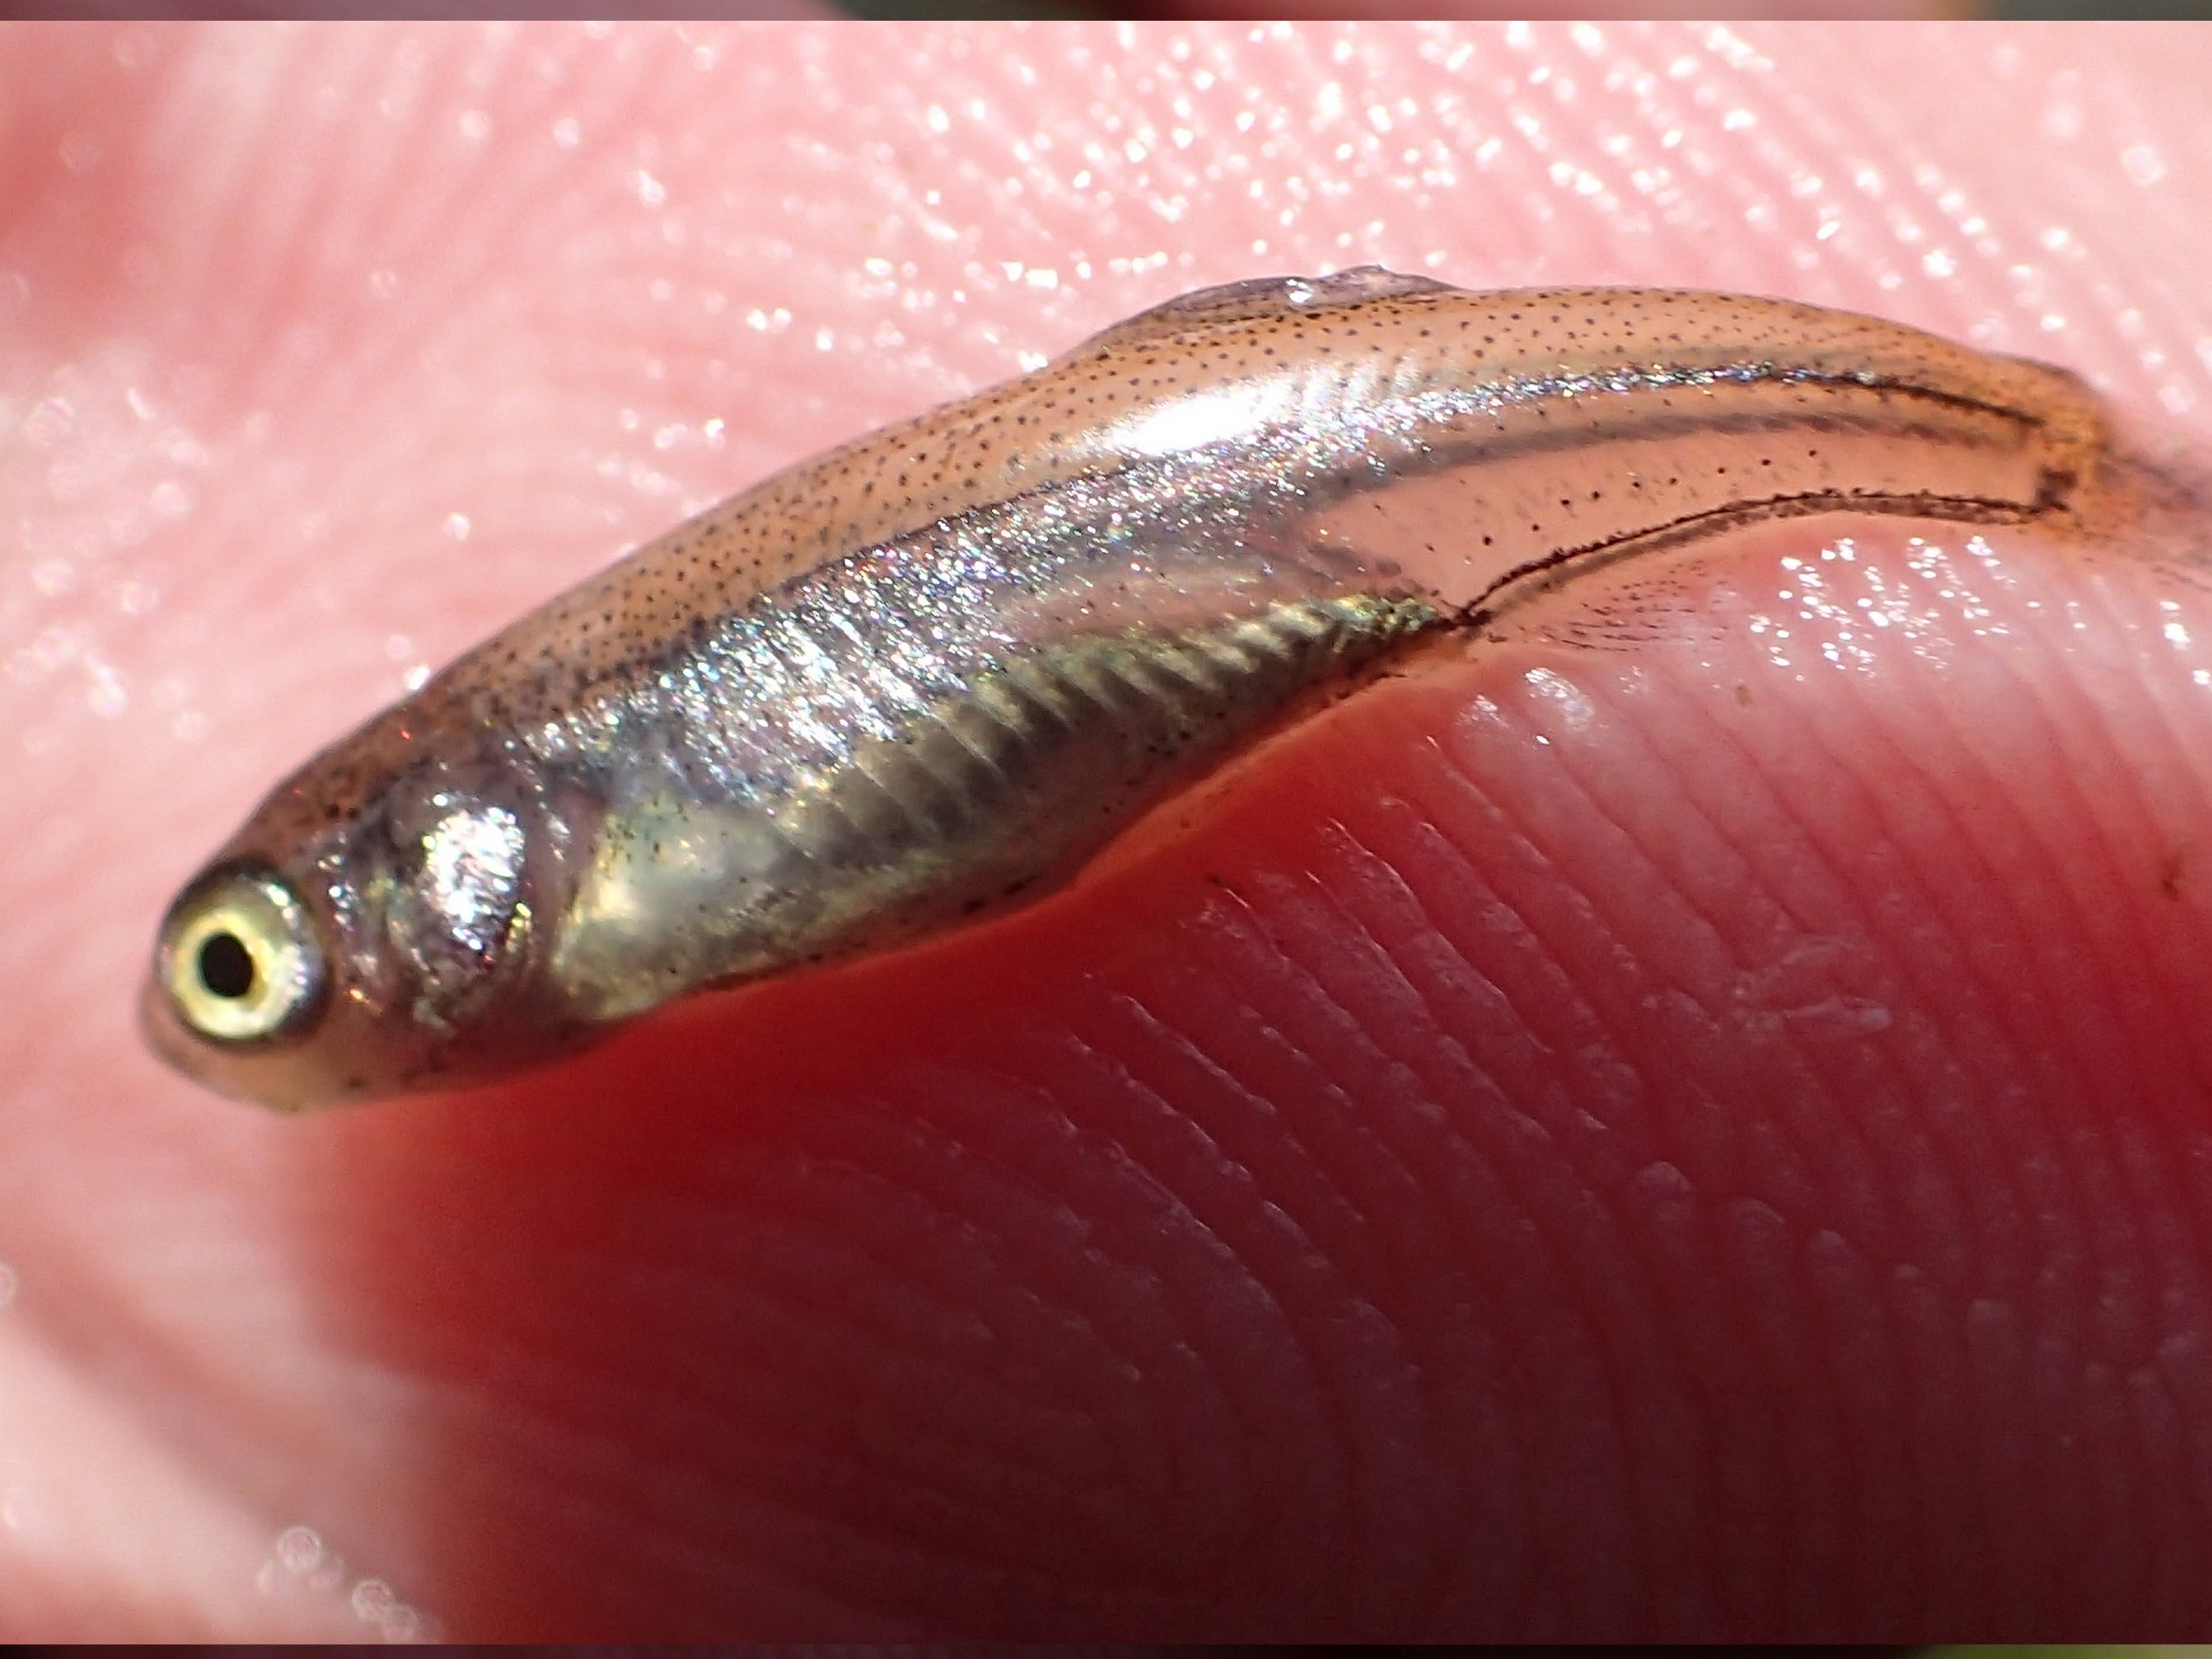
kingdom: Animalia
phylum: Chordata
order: Cypriniformes
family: Cyprinidae
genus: Leucaspius
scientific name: Leucaspius delineatus
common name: Regnløje
